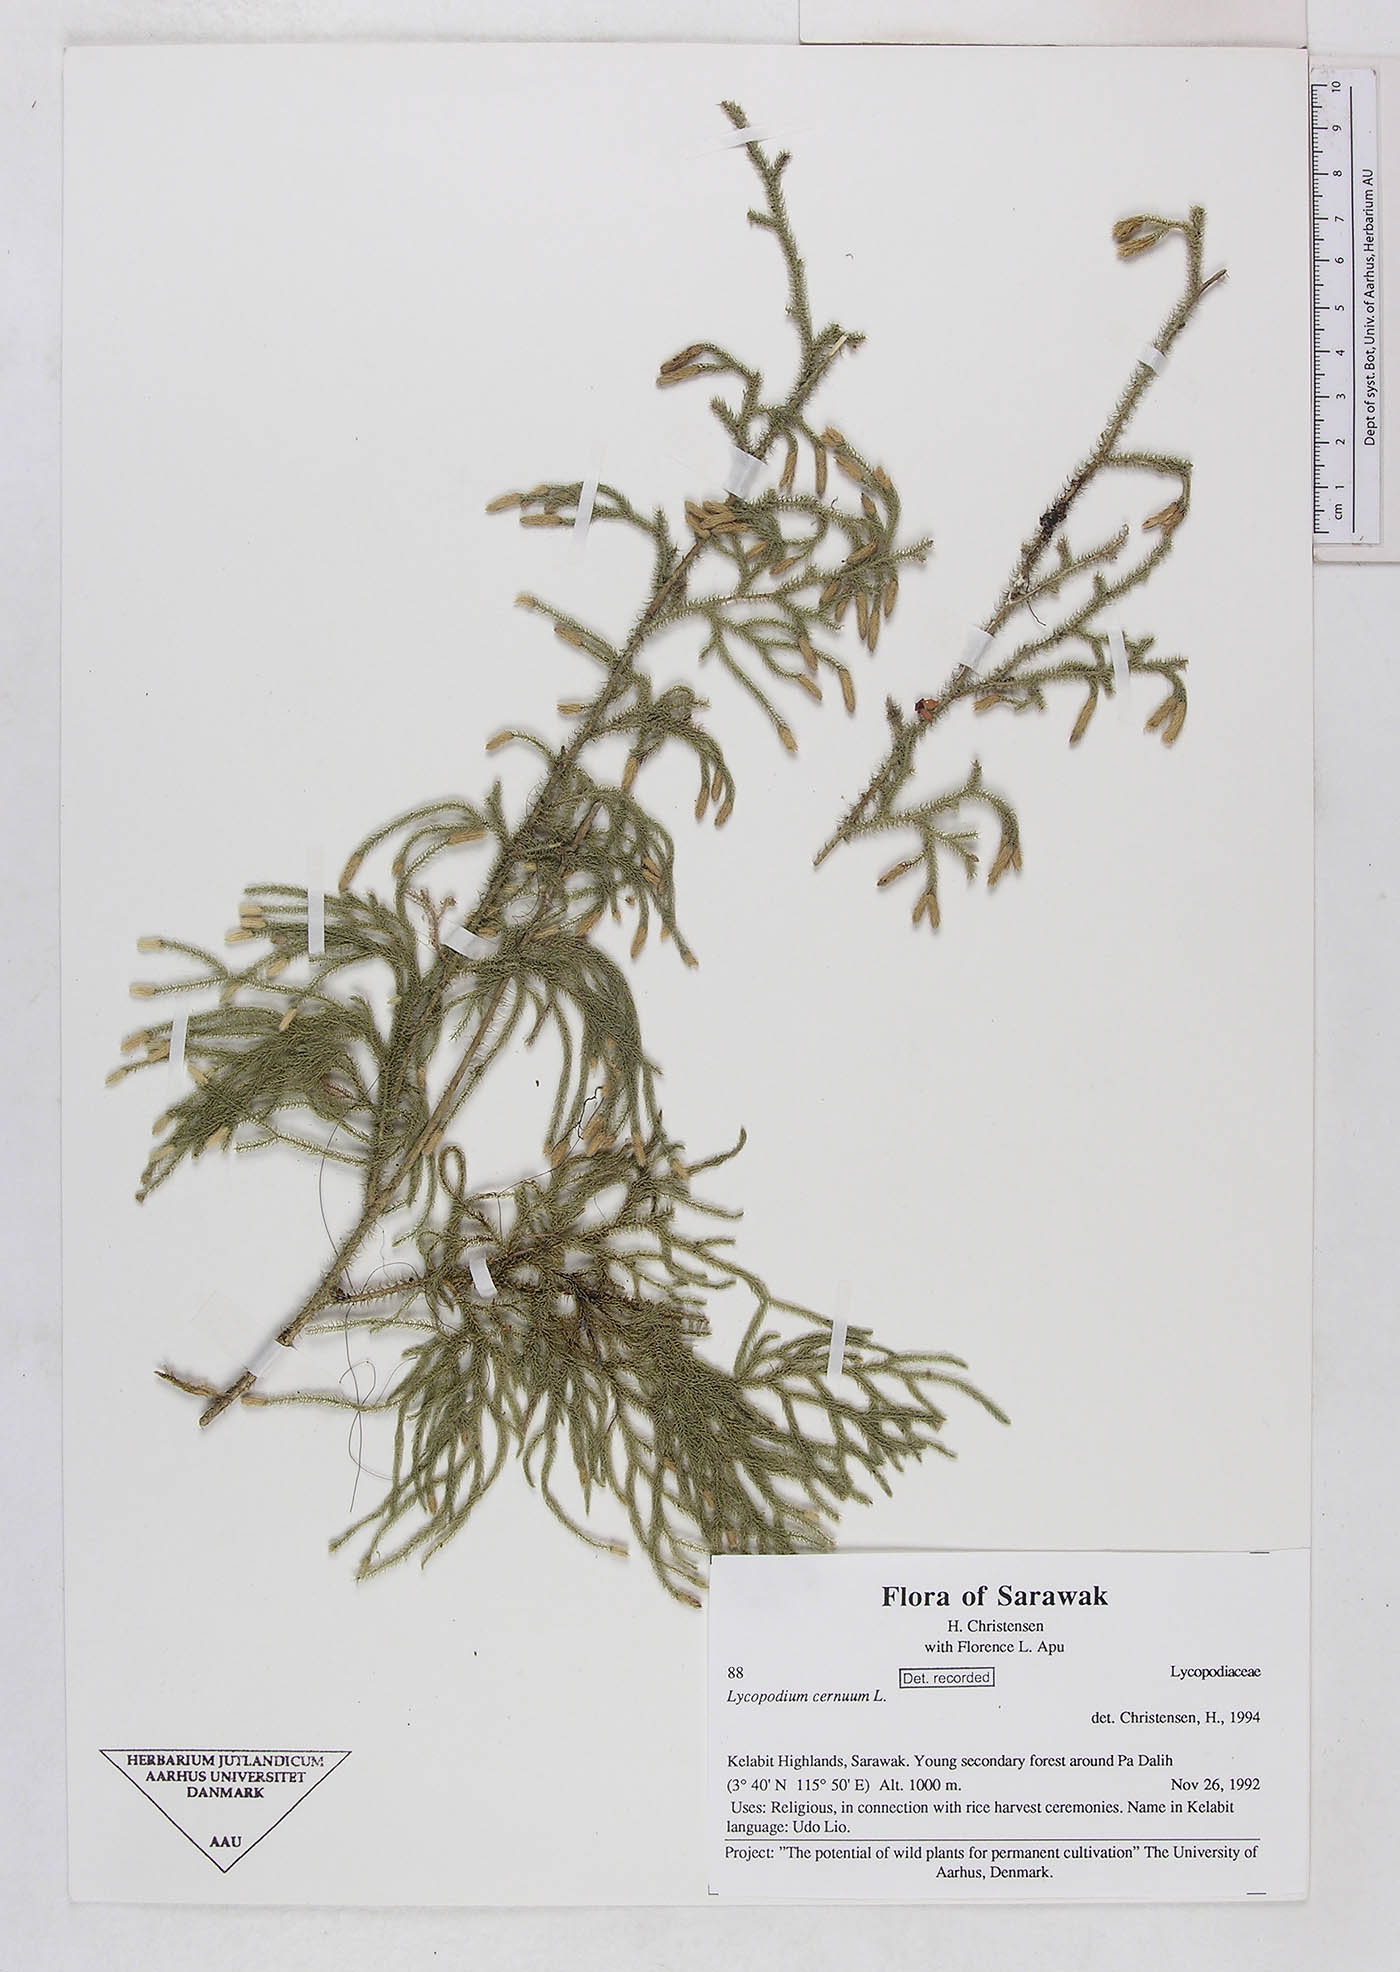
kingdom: Plantae
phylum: Tracheophyta
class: Lycopodiopsida
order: Lycopodiales
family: Lycopodiaceae
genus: Palhinhaea
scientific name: Palhinhaea cernua
